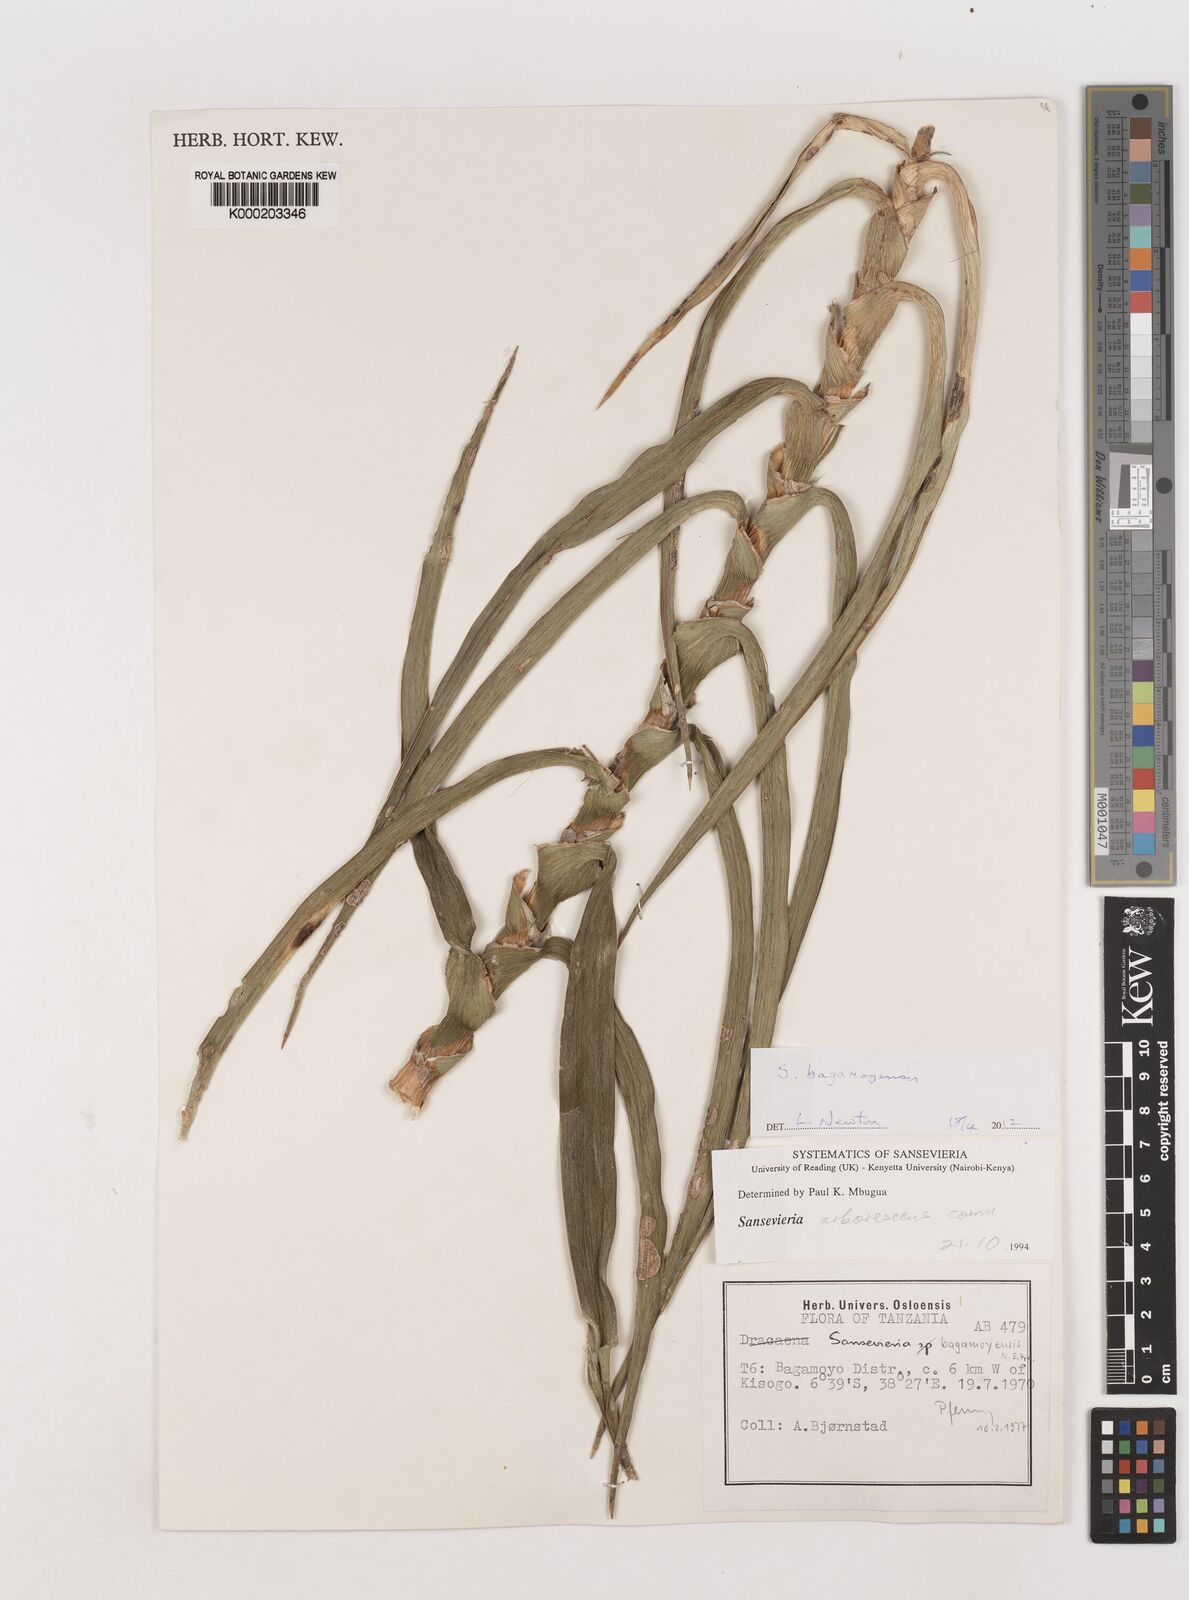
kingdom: Plantae
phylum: Tracheophyta
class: Liliopsida
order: Asparagales
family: Asparagaceae
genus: Dracaena
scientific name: Dracaena
